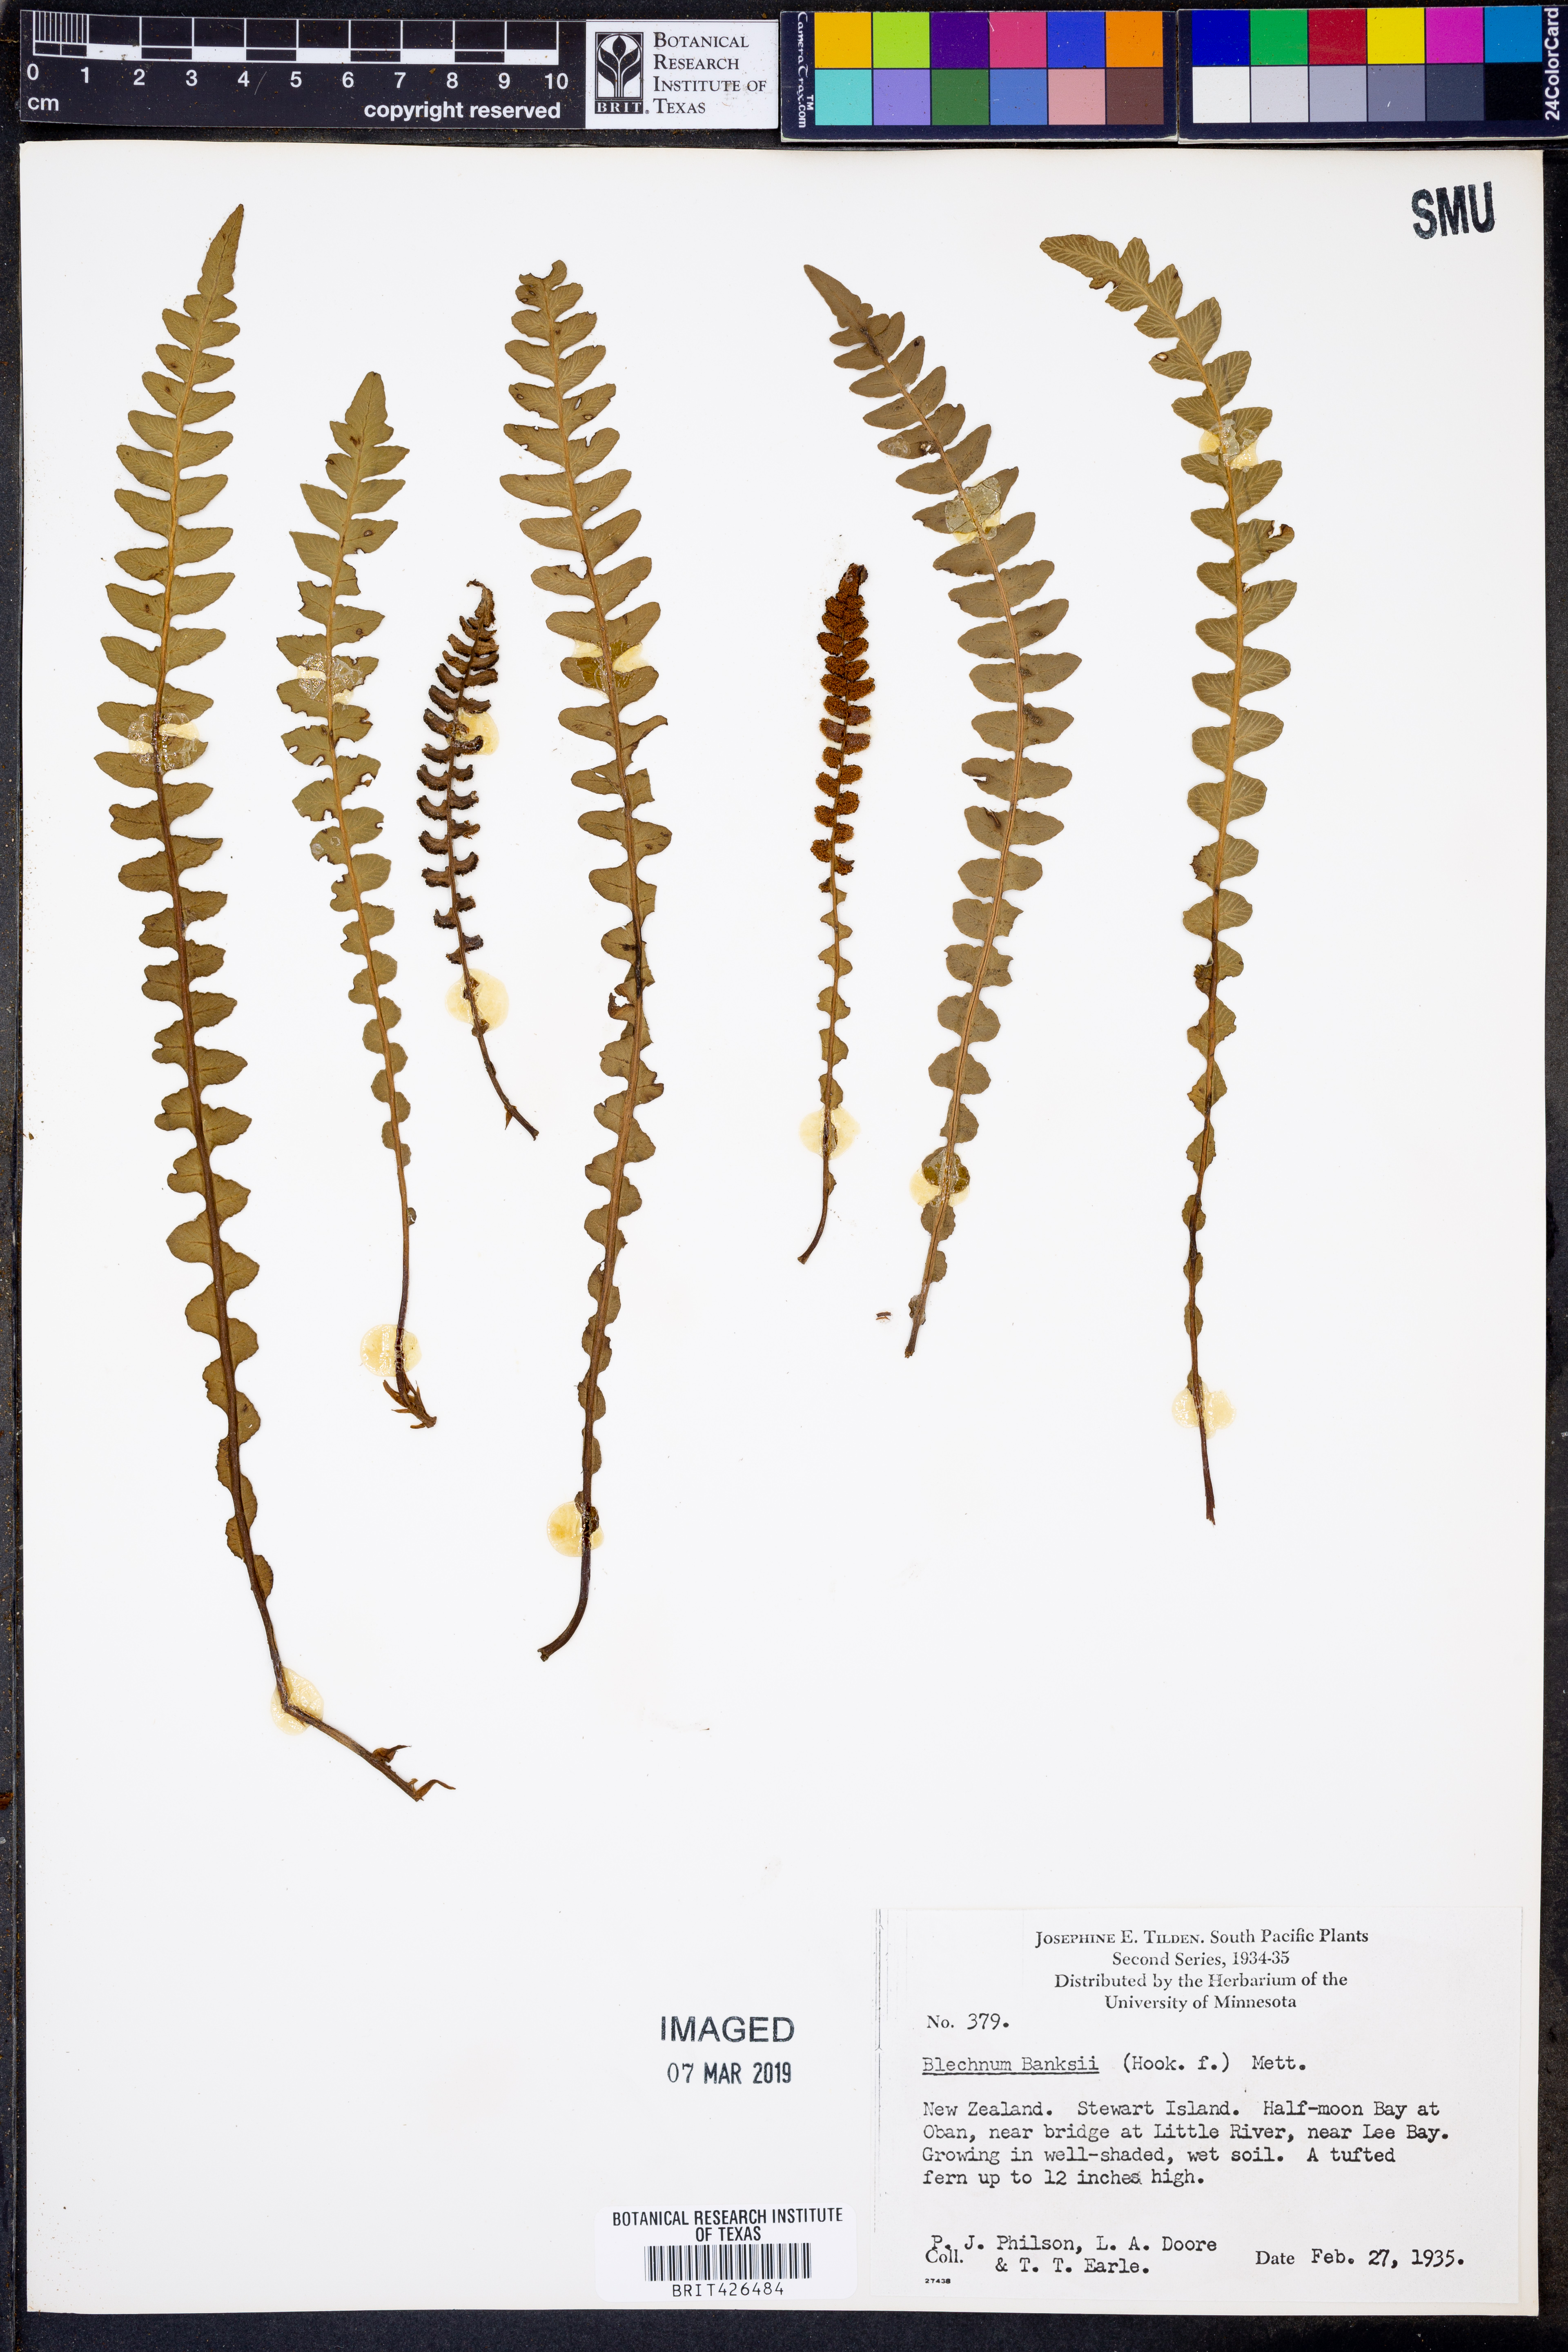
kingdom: Plantae
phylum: Tracheophyta
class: Polypodiopsida
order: Polypodiales
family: Blechnaceae
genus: Austroblechnum
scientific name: Austroblechnum banksii
